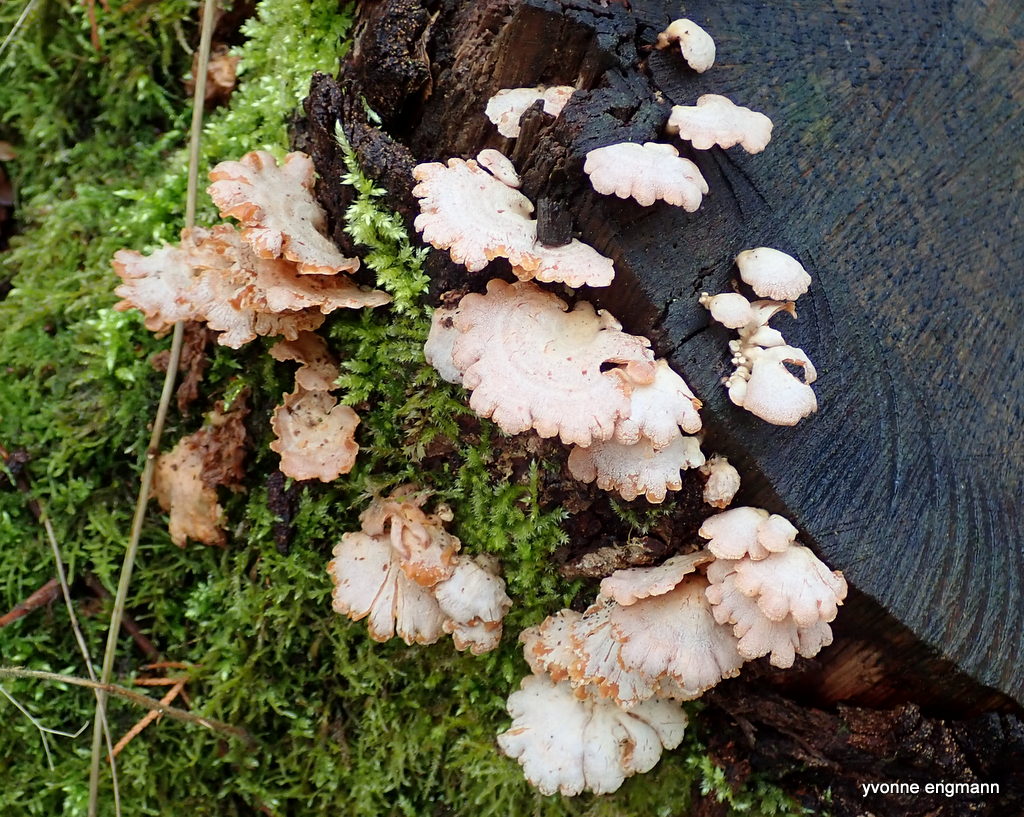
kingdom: Fungi
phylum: Basidiomycota
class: Agaricomycetes
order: Agaricales
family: Mycenaceae
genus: Panellus
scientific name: Panellus stipticus
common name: kliddet epaulethat
